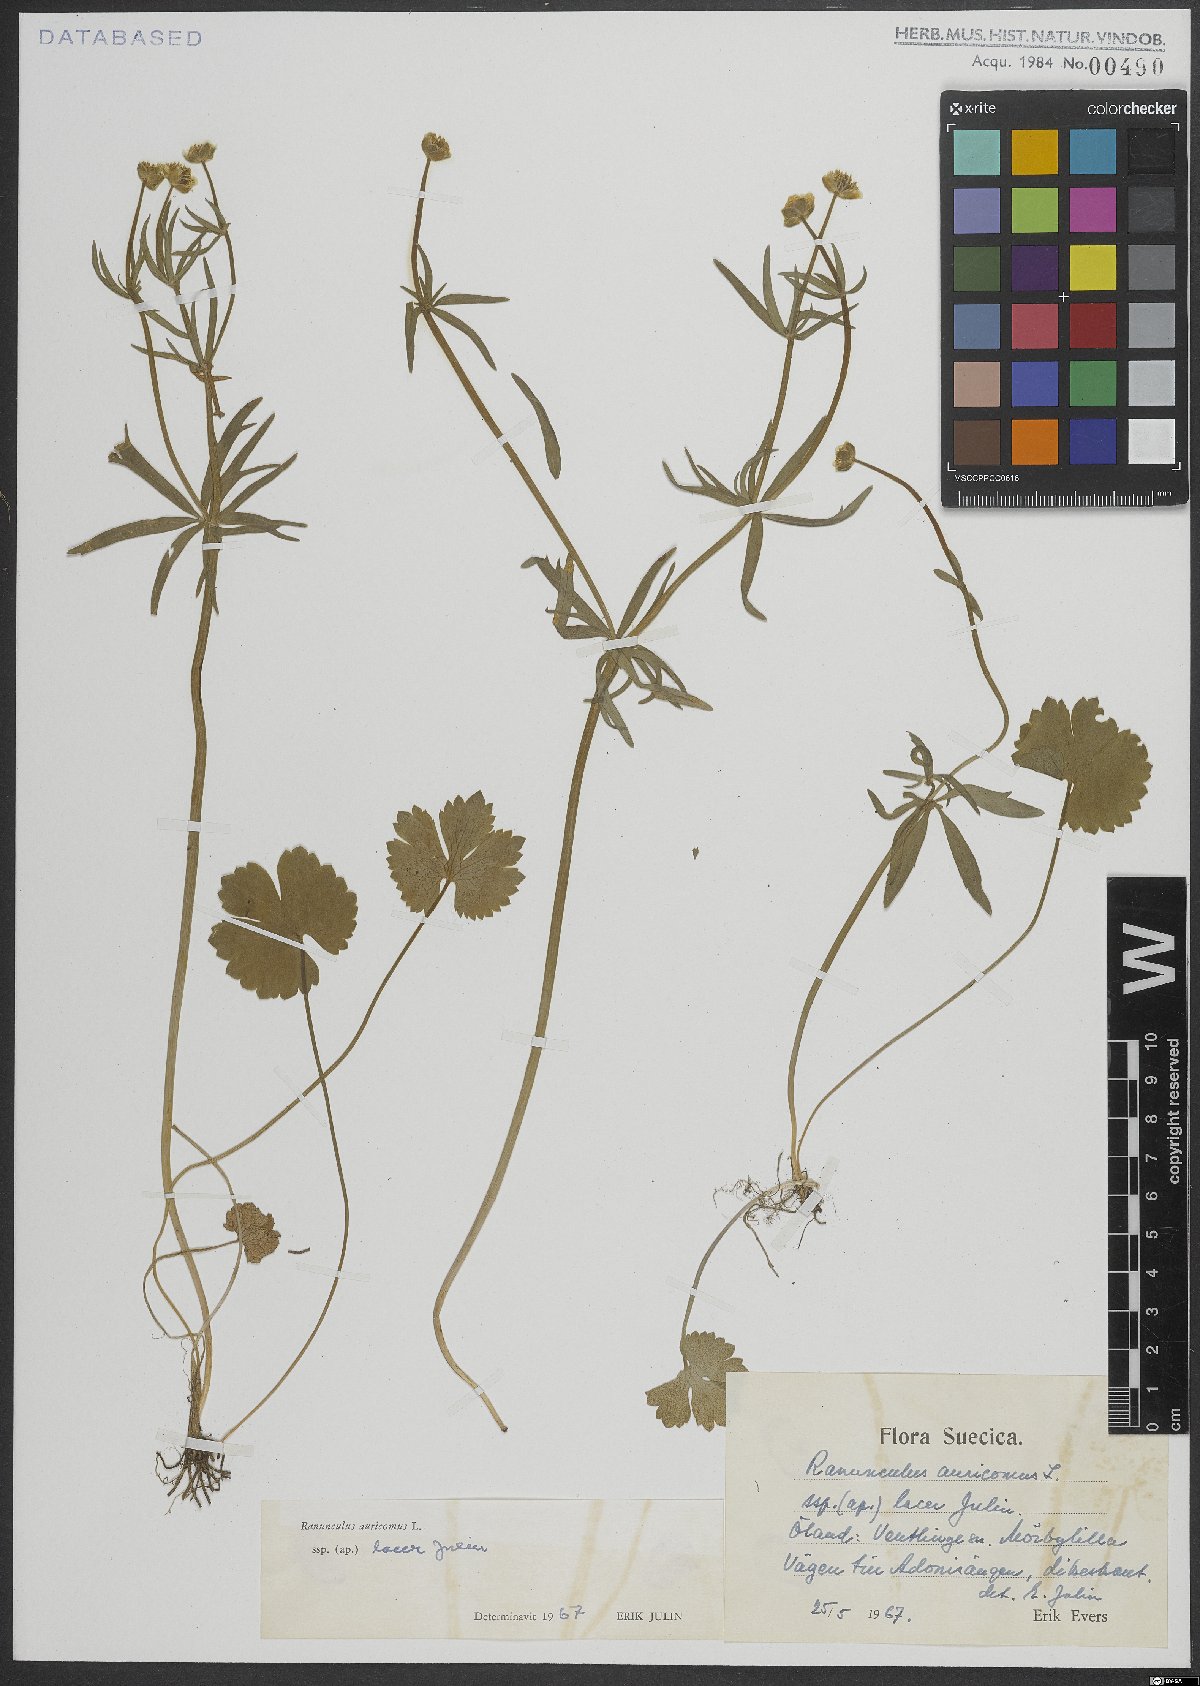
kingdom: Plantae
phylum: Tracheophyta
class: Magnoliopsida
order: Ranunculales
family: Ranunculaceae
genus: Ranunculus
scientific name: Ranunculus auricomus
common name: Goldilocks buttercup
